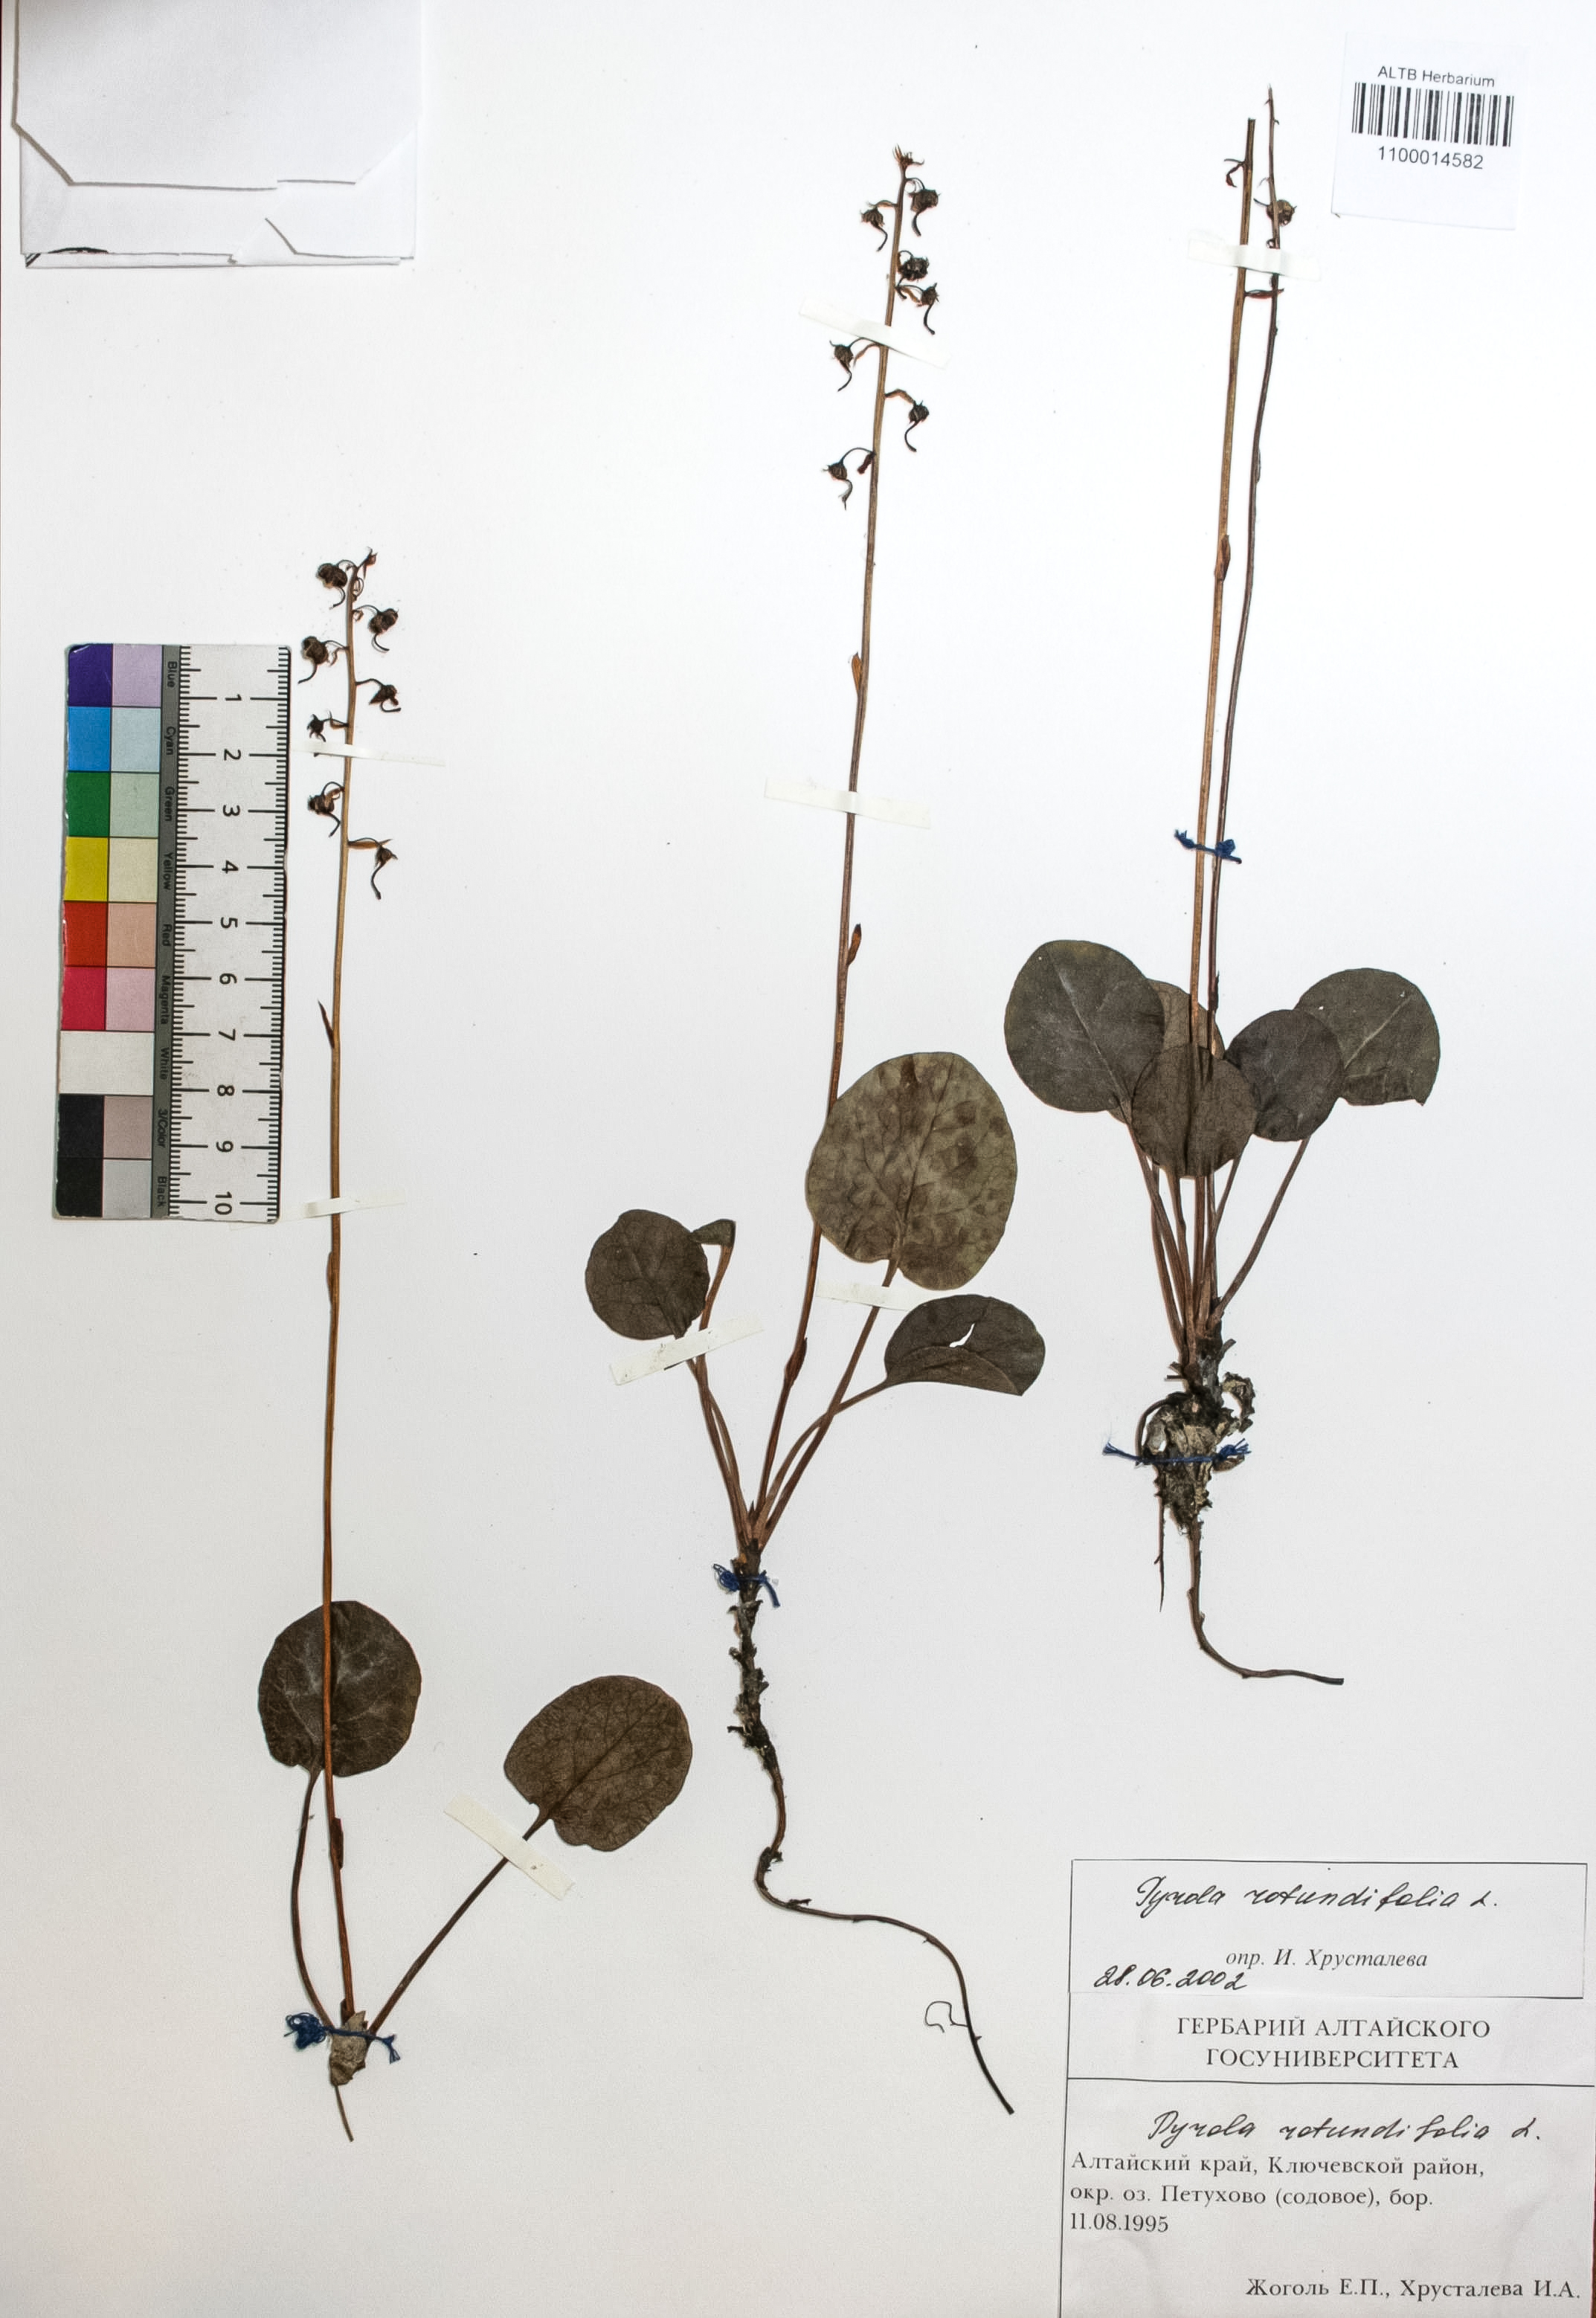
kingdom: Plantae
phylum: Tracheophyta
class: Magnoliopsida
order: Ericales
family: Ericaceae
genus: Pyrola
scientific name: Pyrola rotundifolia
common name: Round-leaved wintergreen
